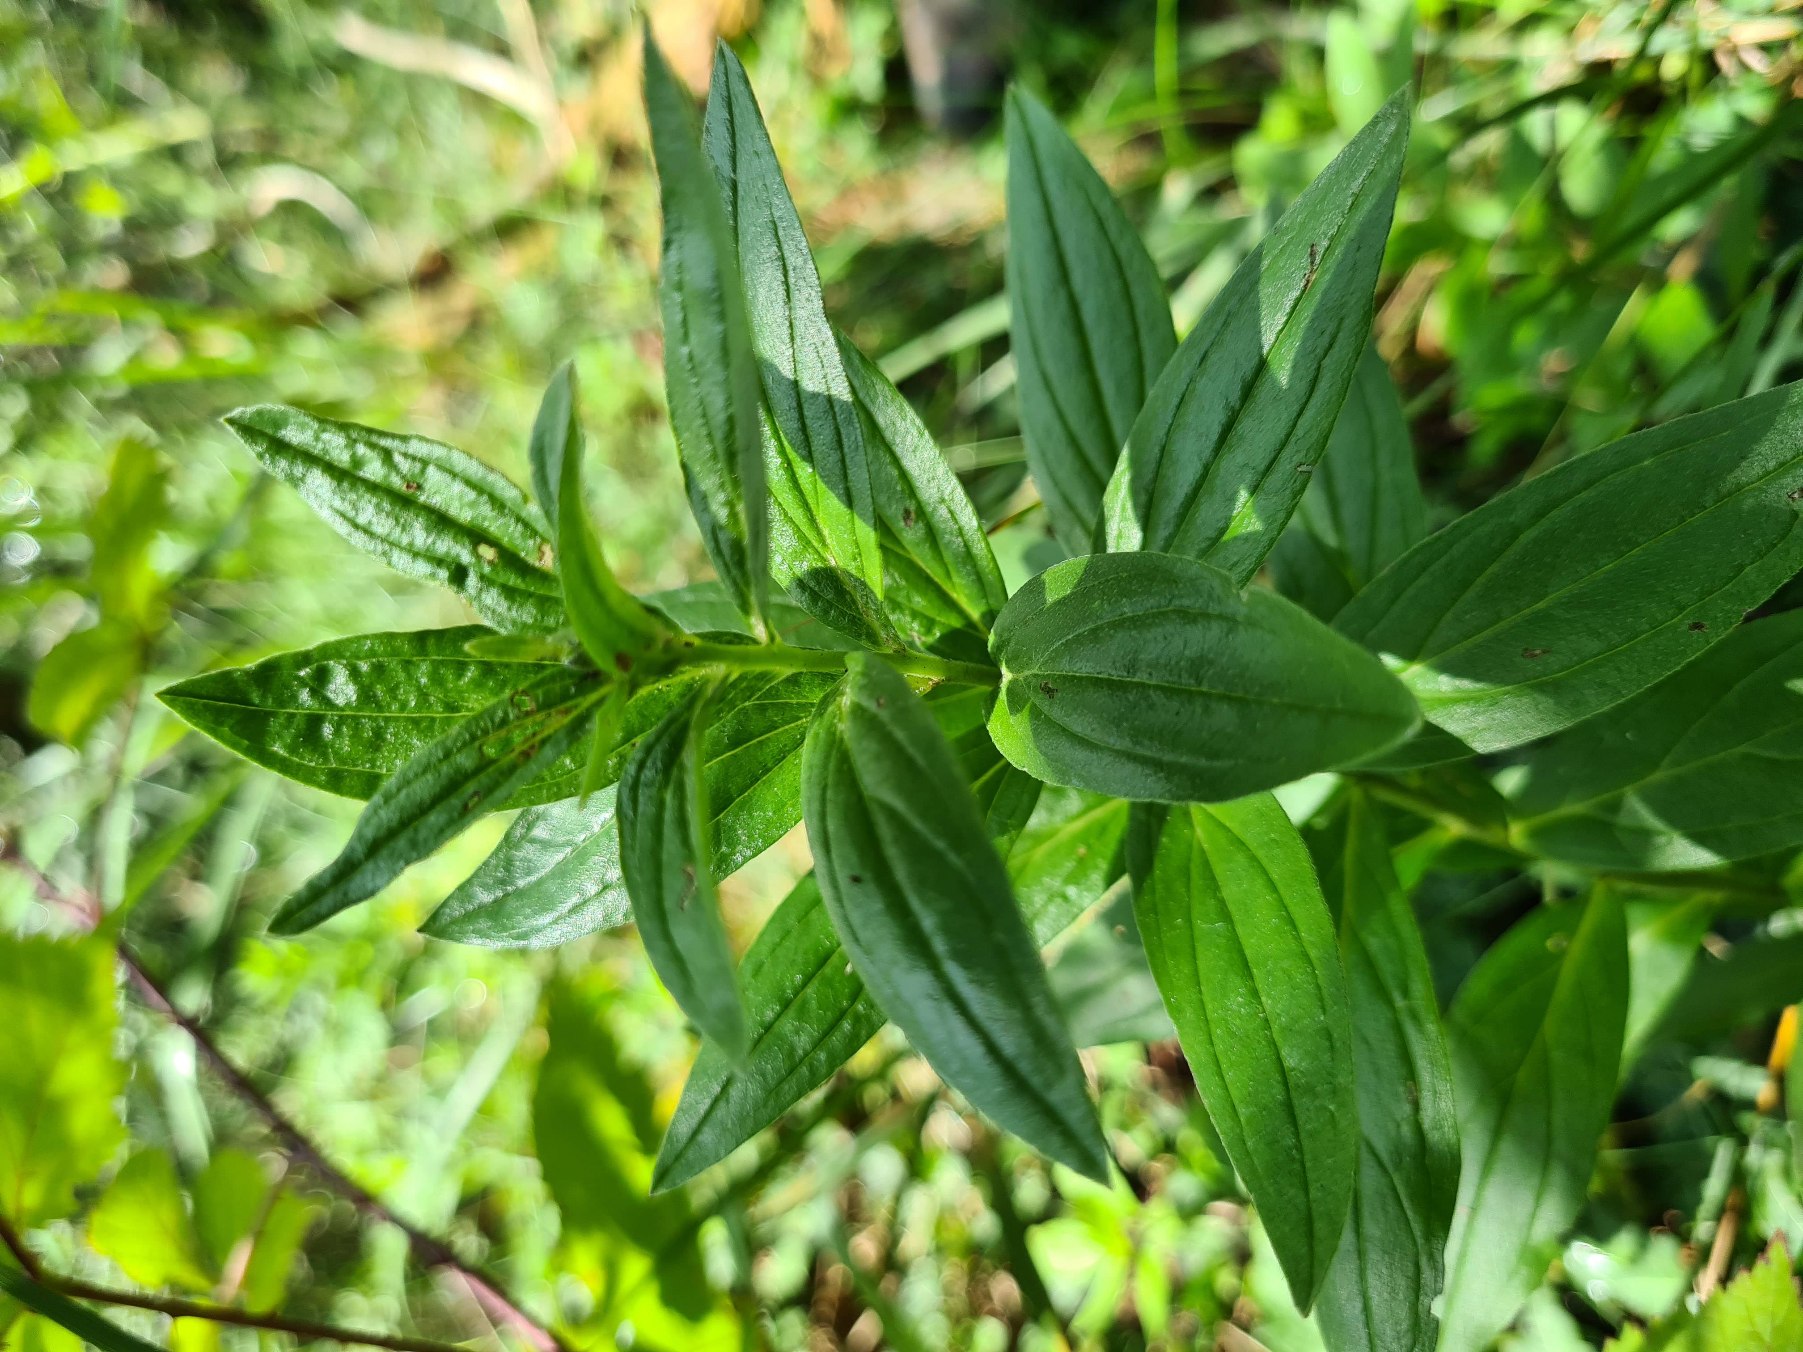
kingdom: Plantae
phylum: Tracheophyta
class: Magnoliopsida
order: Boraginales
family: Boraginaceae
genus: Lithospermum
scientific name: Lithospermum officinale
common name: Læge-stenfrø
